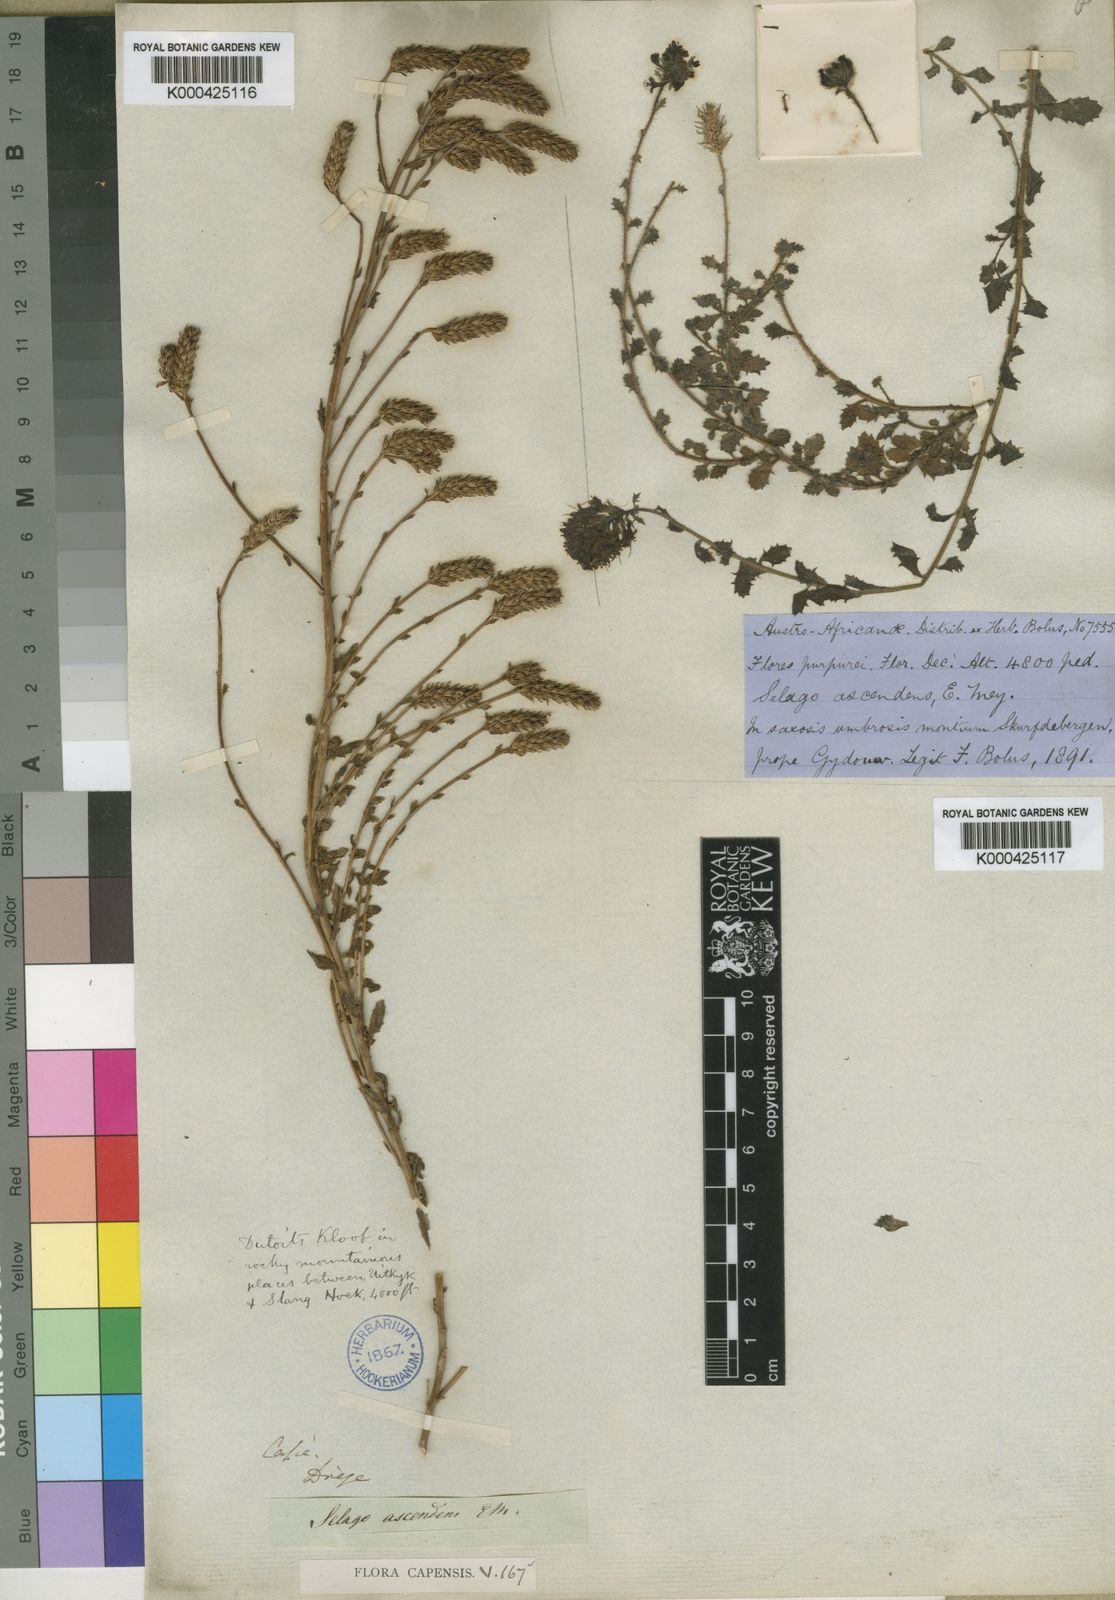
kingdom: Plantae
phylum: Tracheophyta
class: Magnoliopsida
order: Lamiales
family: Scrophulariaceae
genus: Pseudoselago
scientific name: Pseudoselago ascendens
